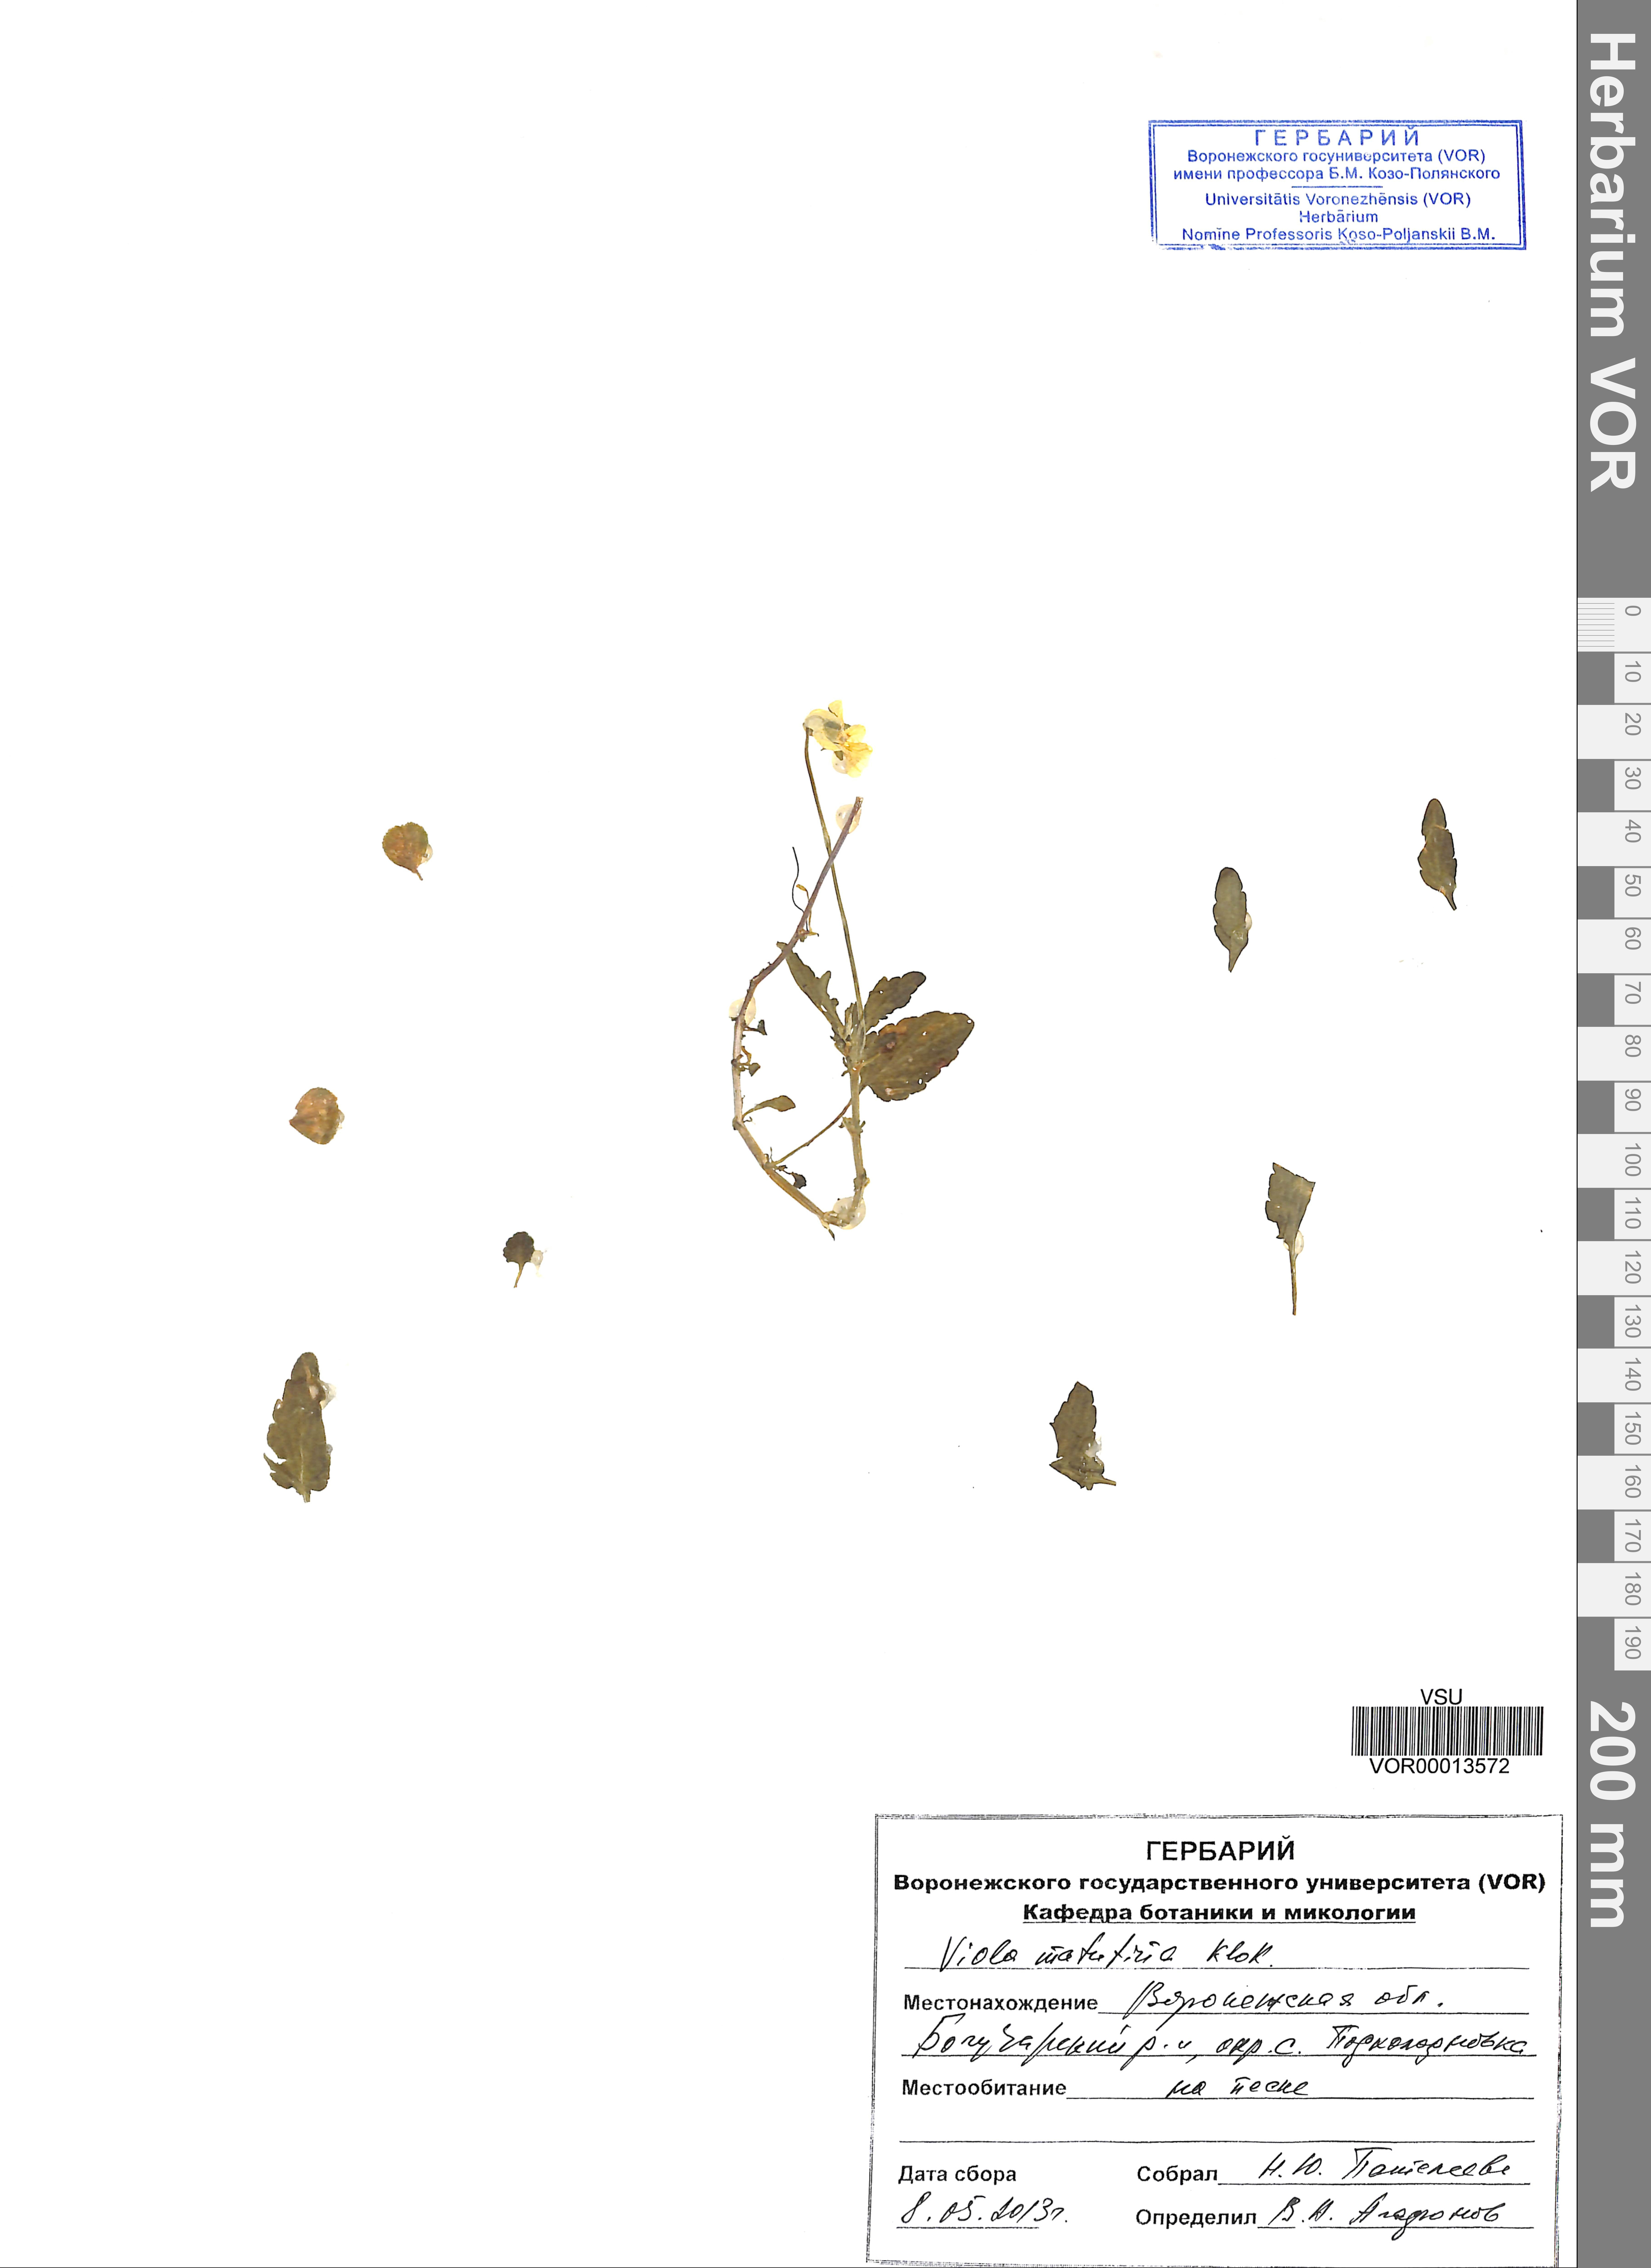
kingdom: Plantae
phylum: Tracheophyta
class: Magnoliopsida
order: Malpighiales
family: Violaceae
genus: Viola
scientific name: Viola tricolor
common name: Pansy
